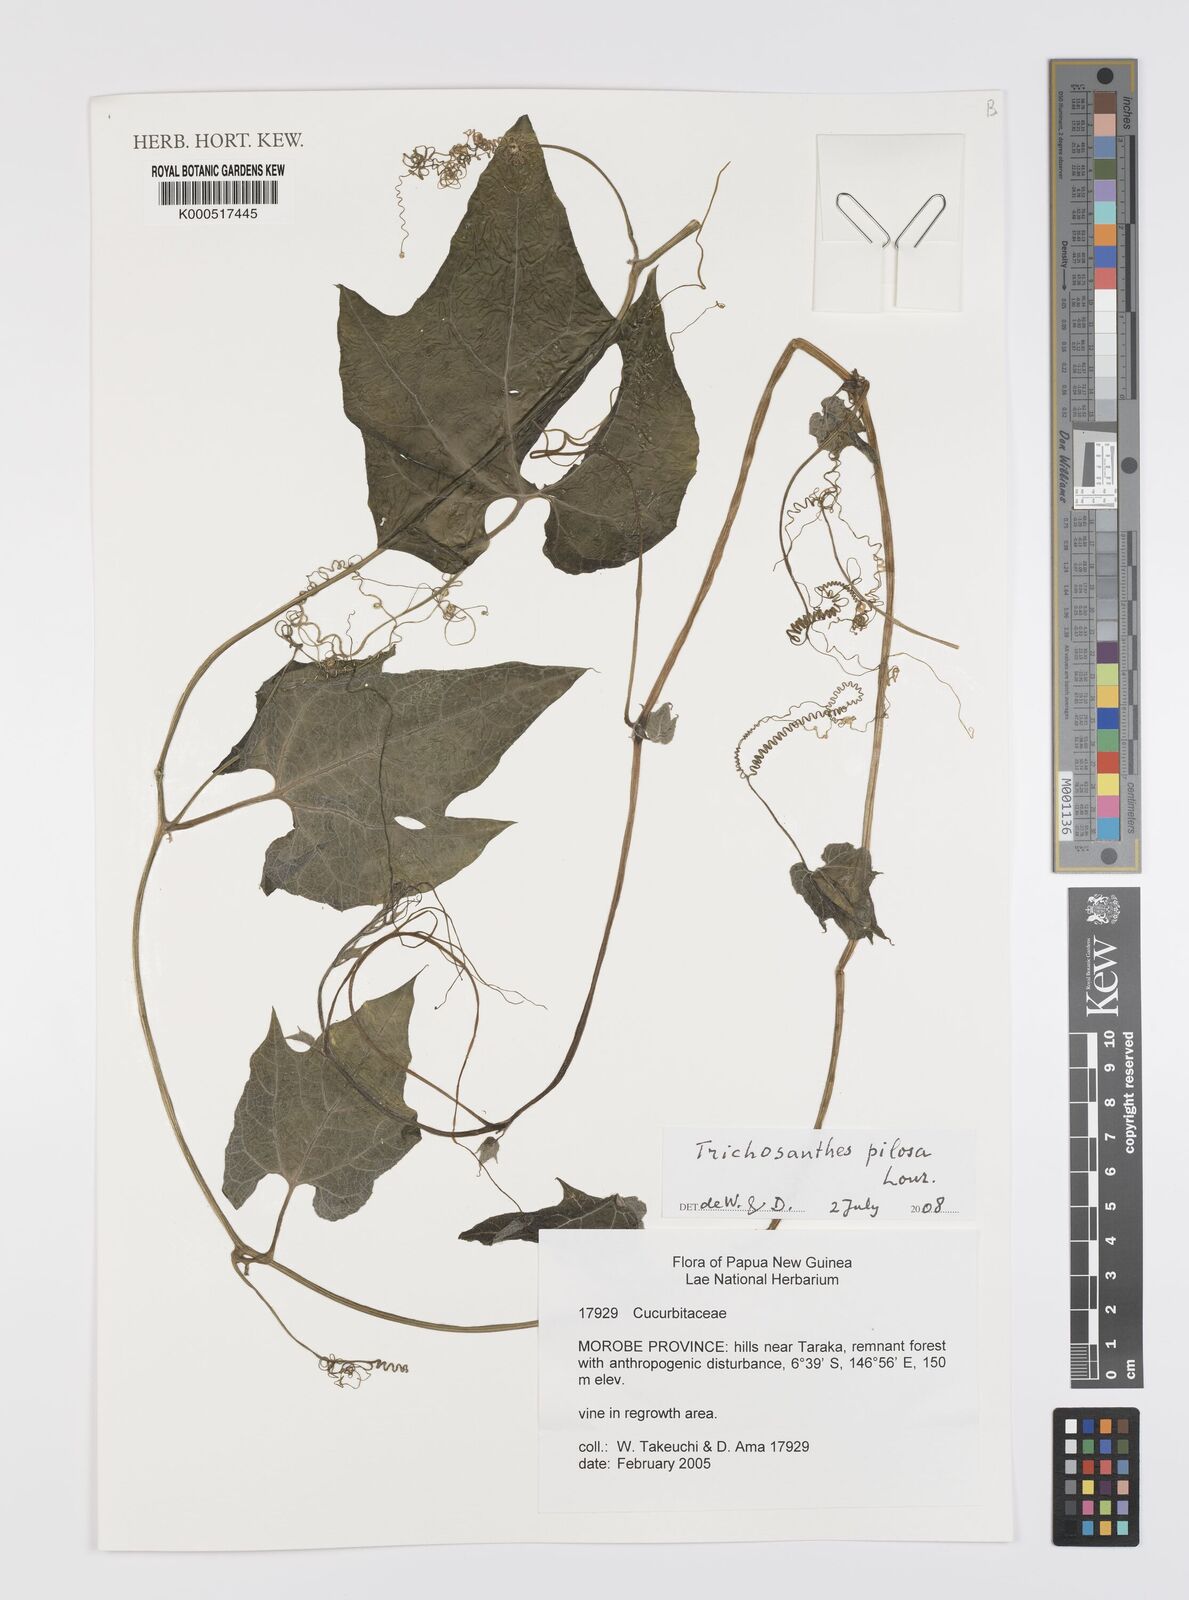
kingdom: Plantae
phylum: Tracheophyta
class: Magnoliopsida
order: Cucurbitales
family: Cucurbitaceae
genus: Trichosanthes
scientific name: Trichosanthes pilosa
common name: Snake gourd
